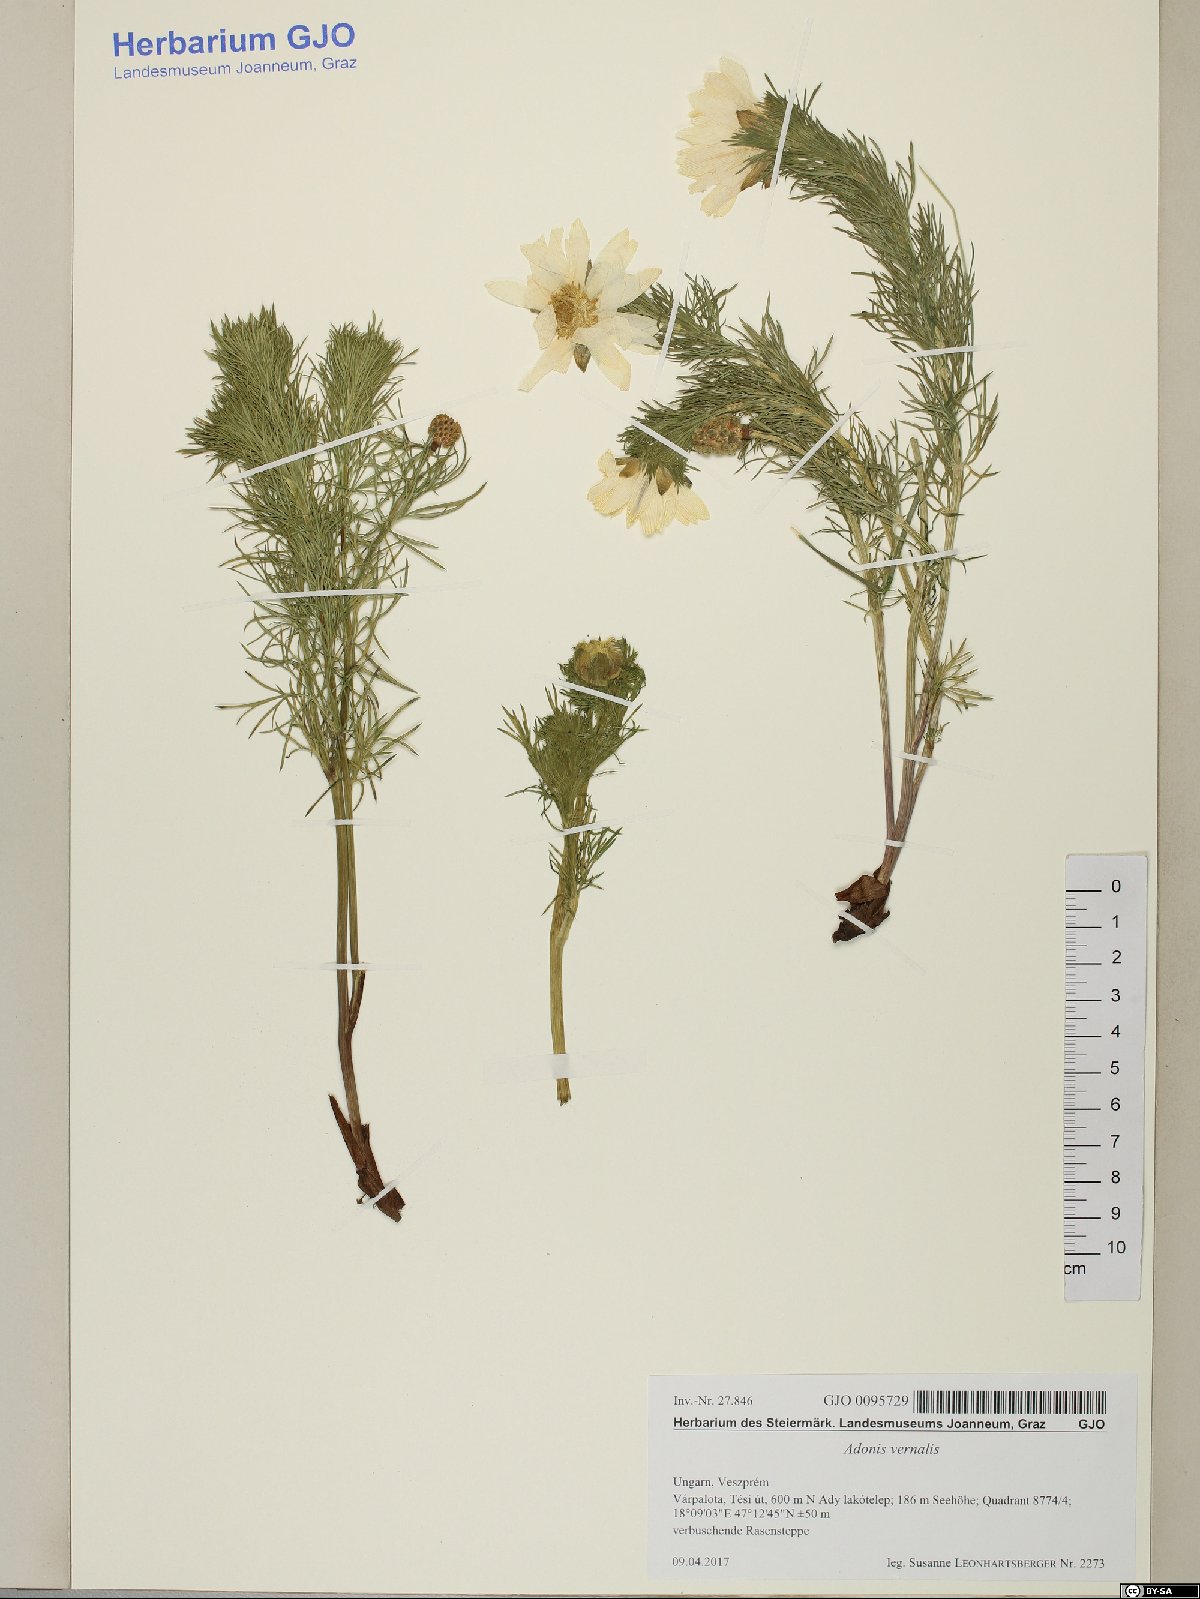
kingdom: Plantae
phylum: Tracheophyta
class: Magnoliopsida
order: Ranunculales
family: Ranunculaceae
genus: Adonis
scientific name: Adonis vernalis
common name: Yellow pheasants-eye
